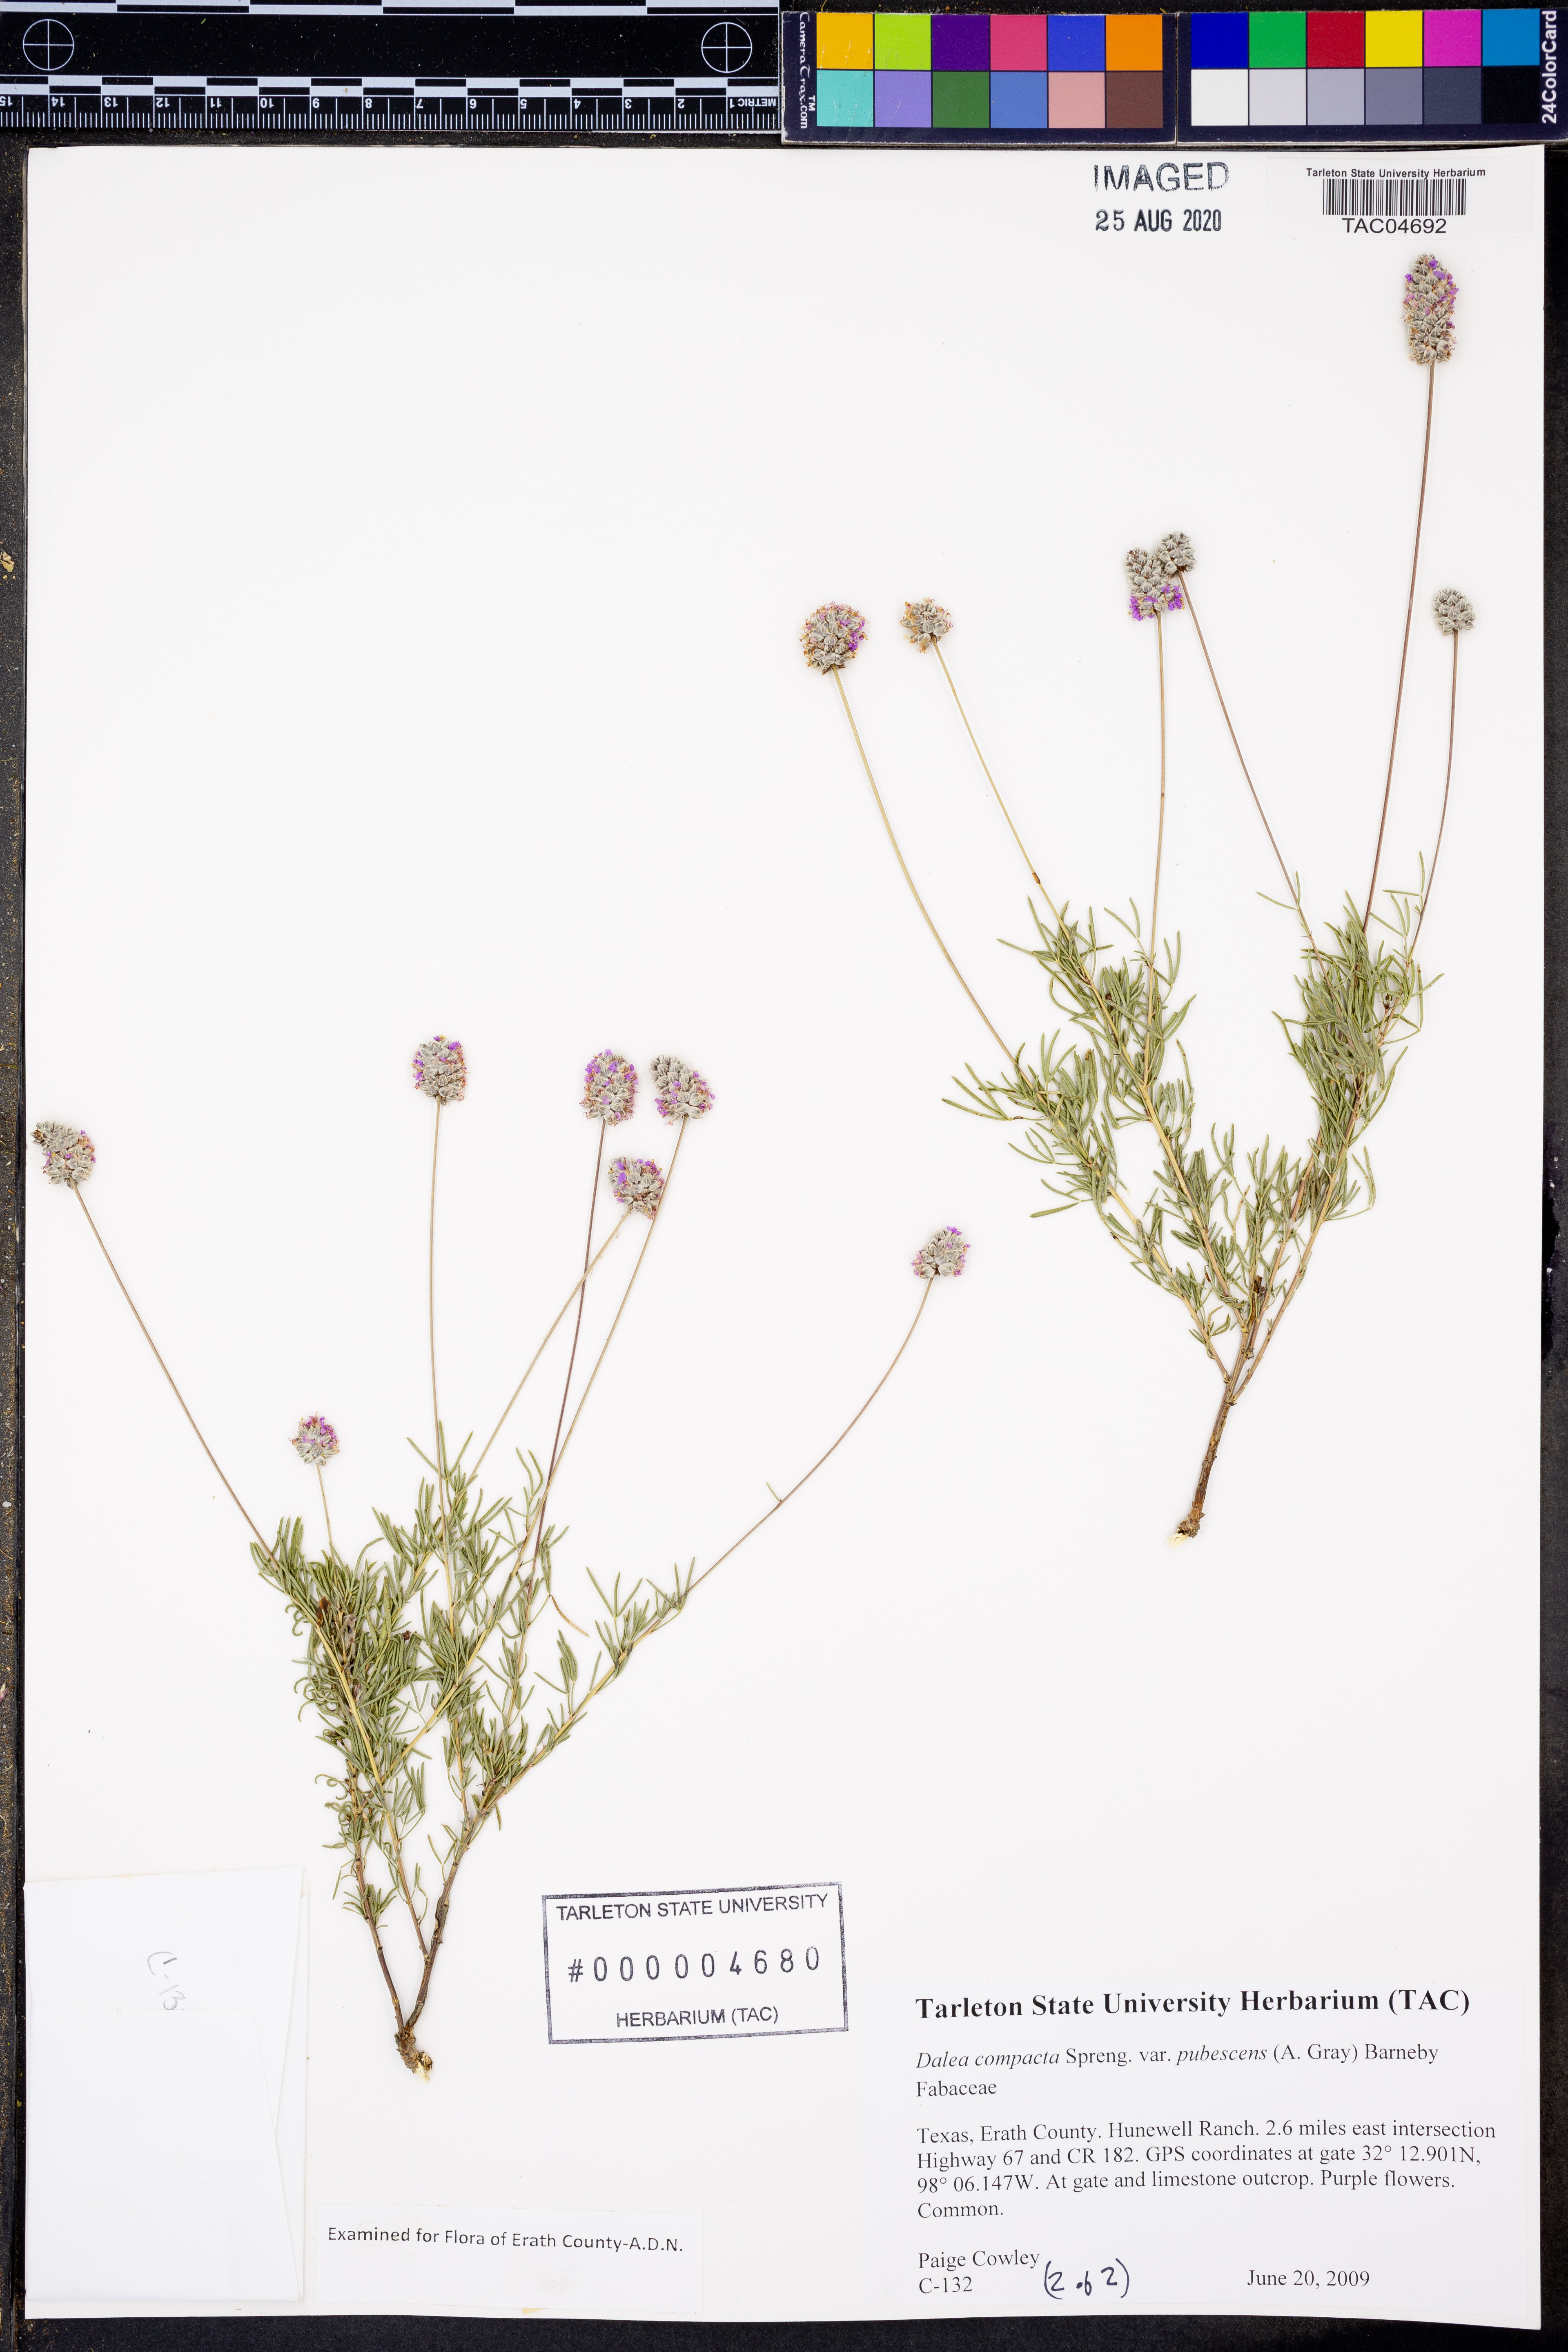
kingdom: Plantae
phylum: Tracheophyta
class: Magnoliopsida
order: Fabales
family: Fabaceae
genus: Dalea
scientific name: Dalea compacta
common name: Compact prairie-clover
